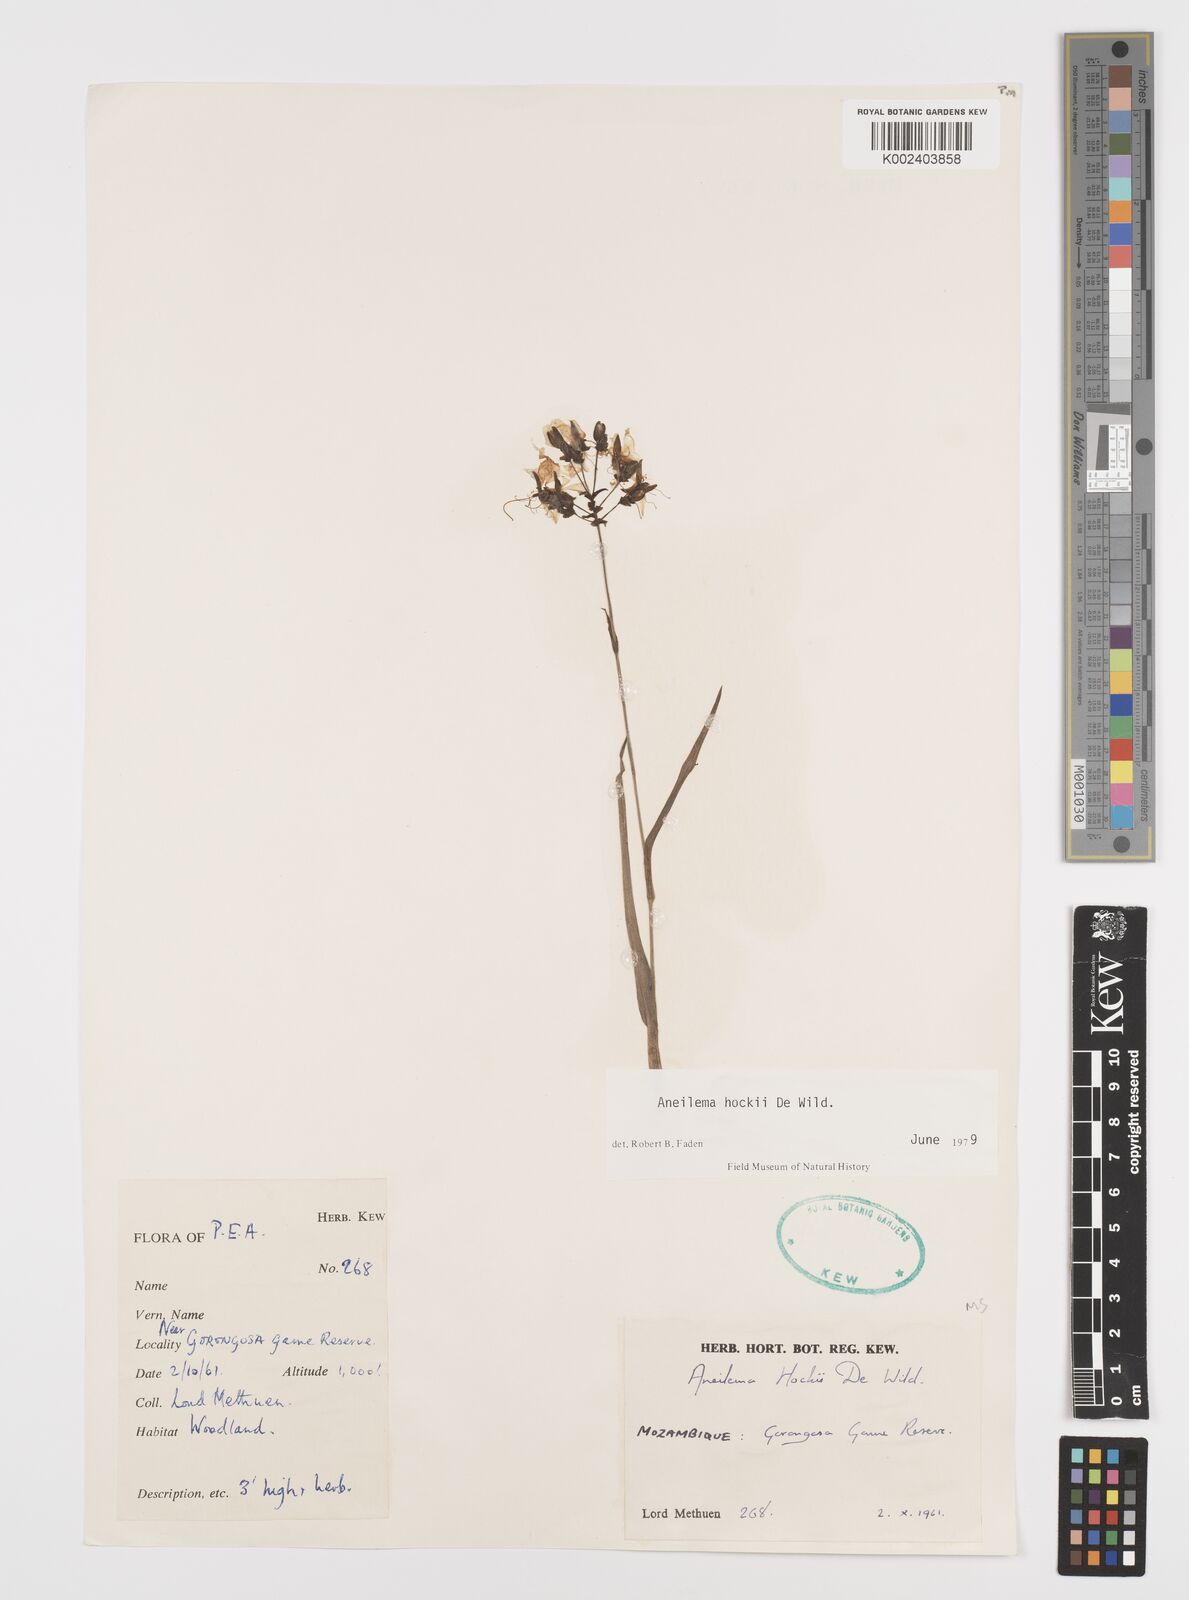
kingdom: Plantae
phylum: Tracheophyta
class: Liliopsida
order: Commelinales
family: Commelinaceae
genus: Aneilema
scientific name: Aneilema hockii
